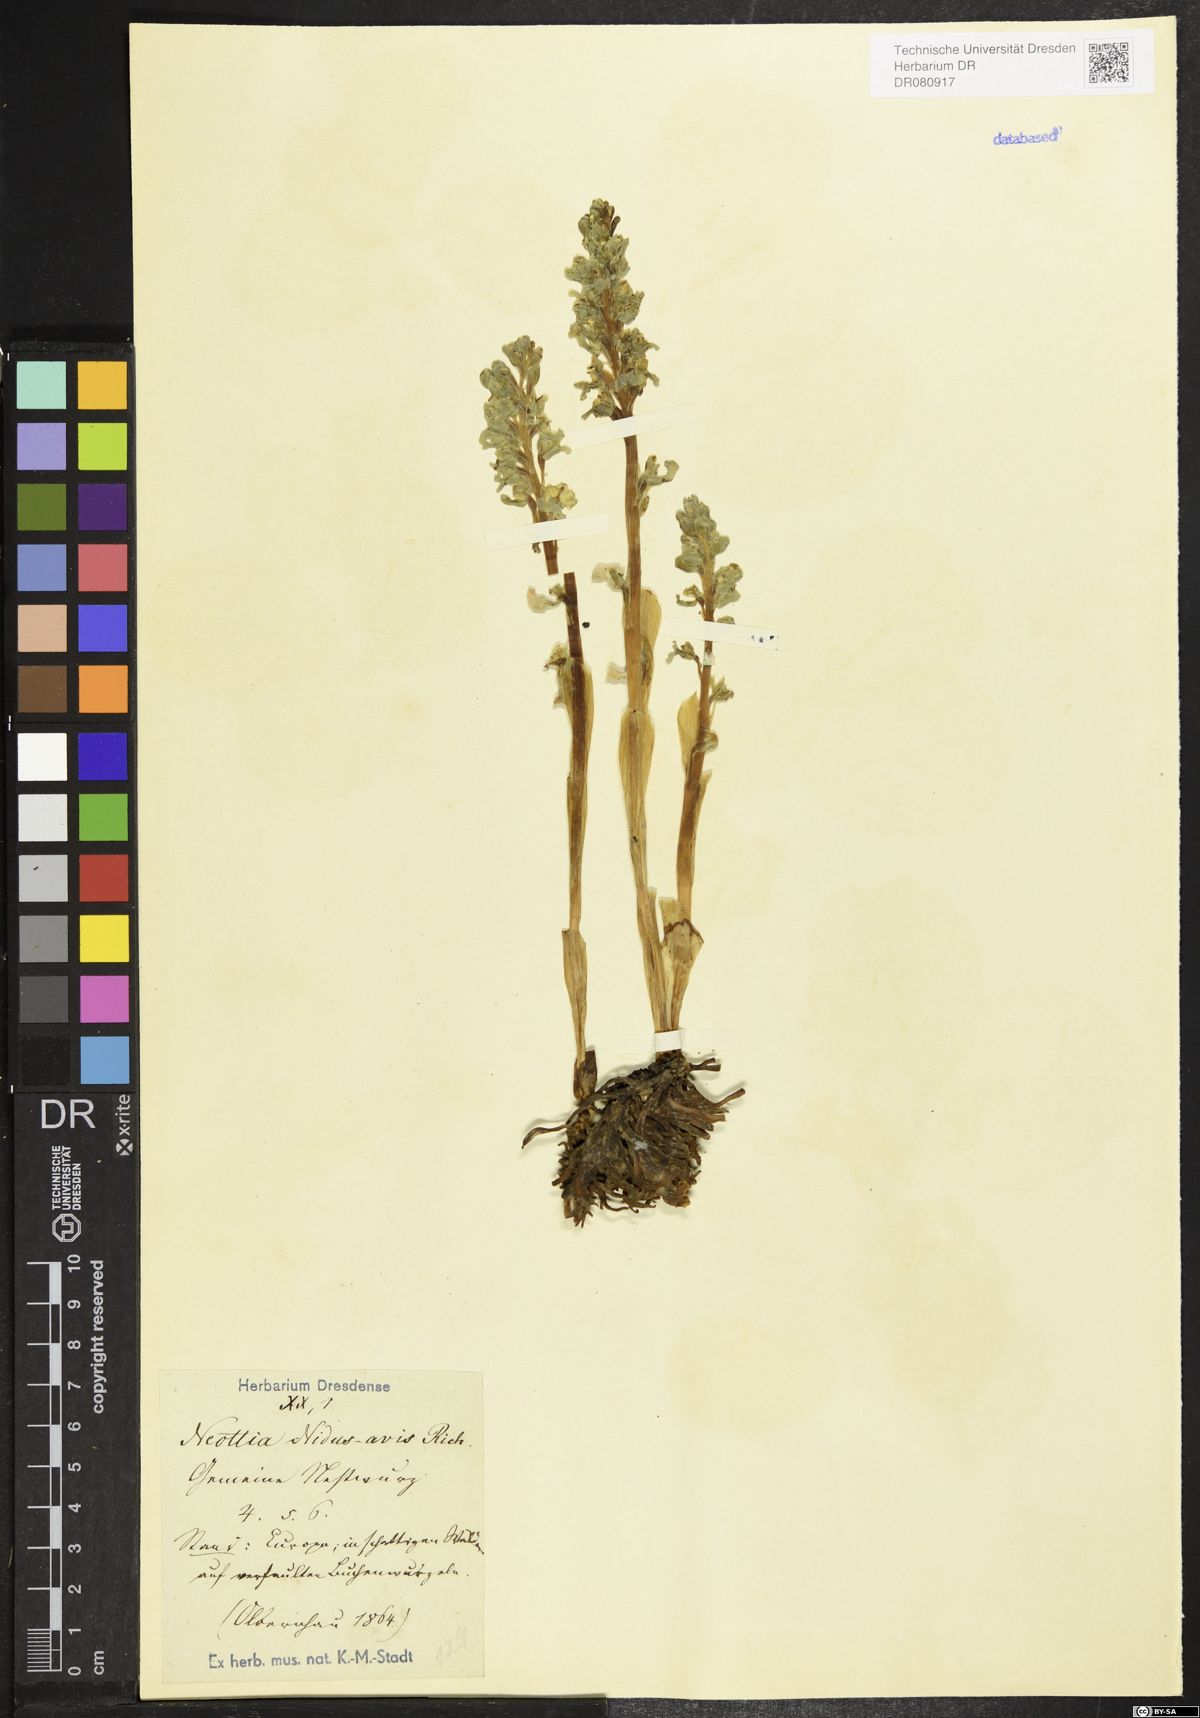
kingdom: Plantae
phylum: Tracheophyta
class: Liliopsida
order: Asparagales
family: Orchidaceae
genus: Neottia
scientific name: Neottia nidus-avis
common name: Bird's-nest orchid
